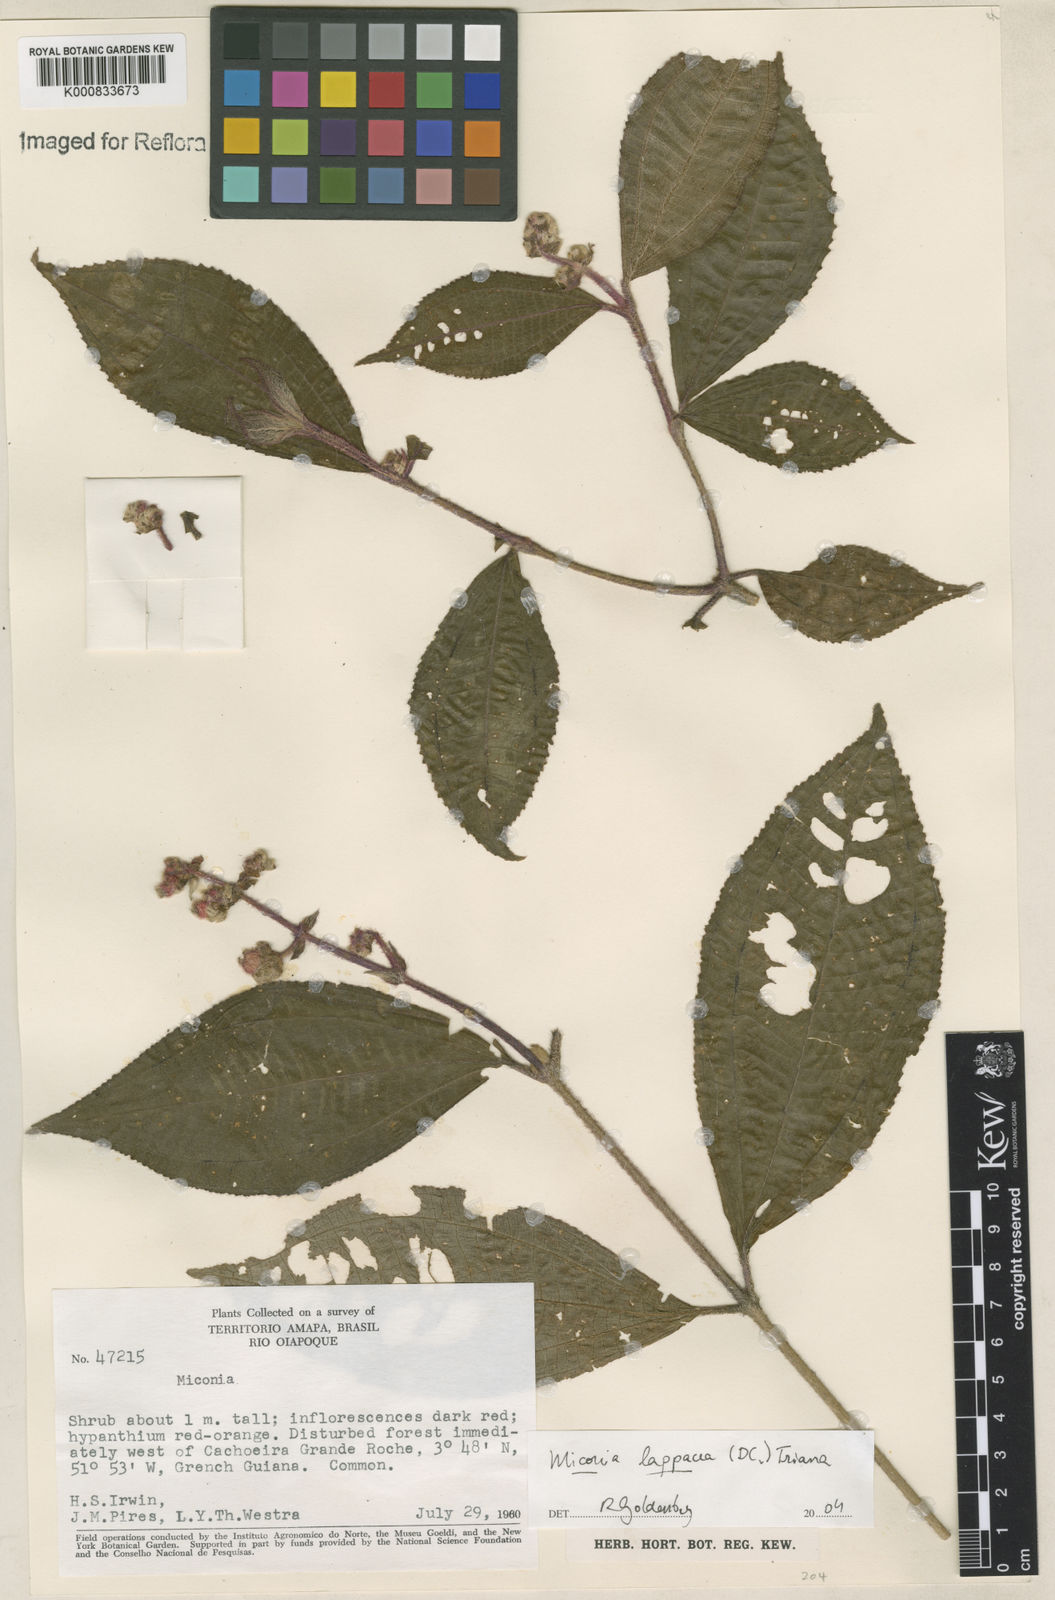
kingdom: Plantae
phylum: Tracheophyta
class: Magnoliopsida
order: Myrtales
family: Melastomataceae
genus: Miconia
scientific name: Miconia lappacea
